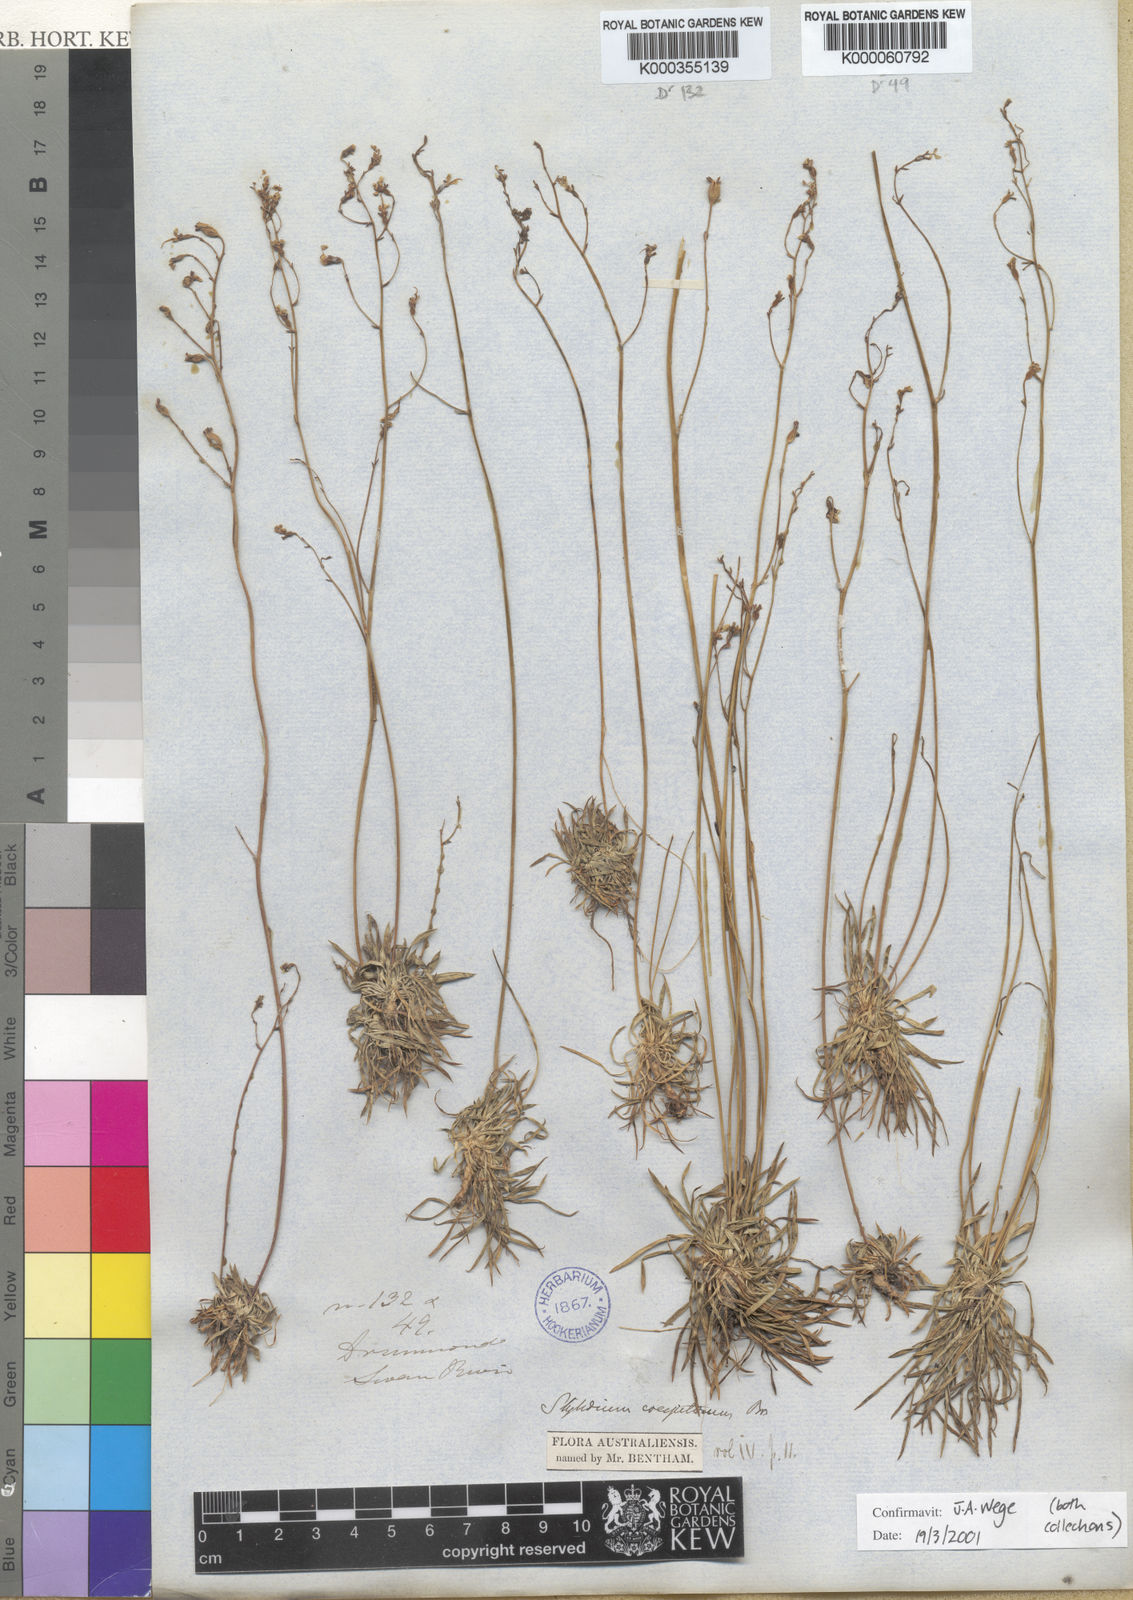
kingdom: Plantae
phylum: Tracheophyta
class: Magnoliopsida
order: Asterales
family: Stylidiaceae
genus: Stylidium
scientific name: Stylidium caespitosum
